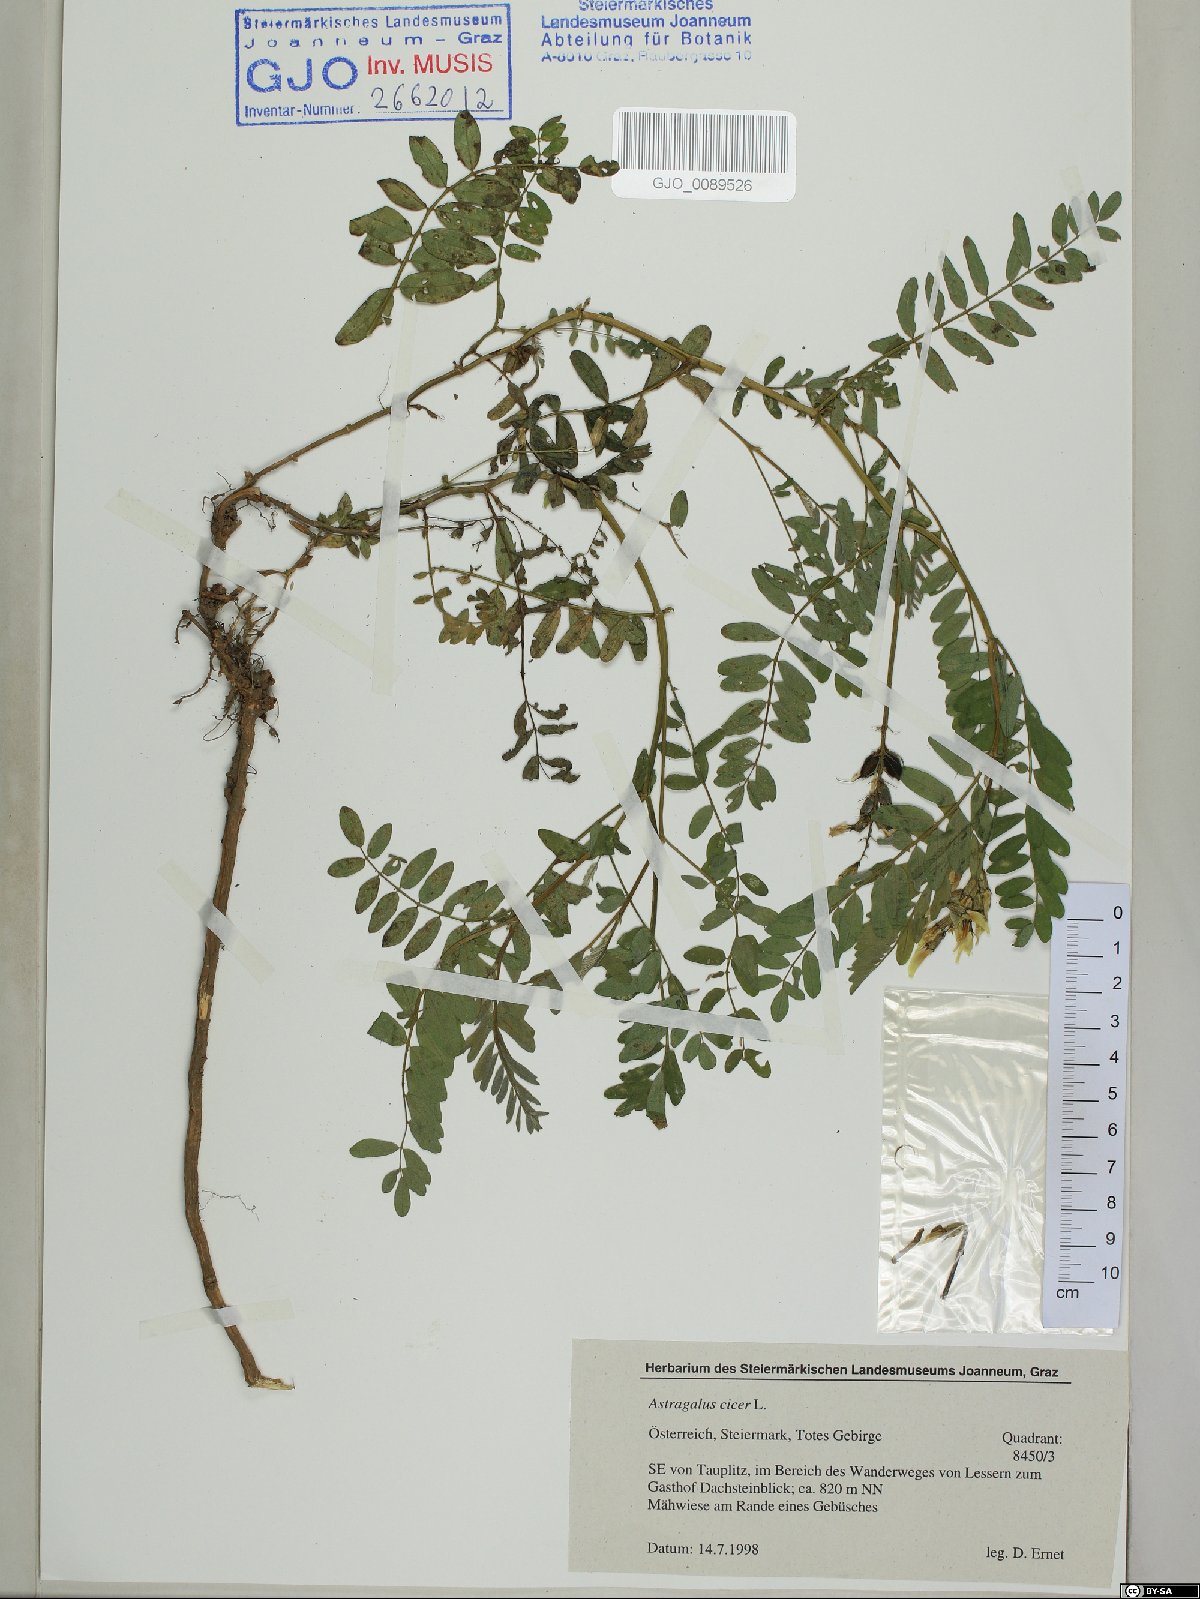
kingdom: Plantae
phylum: Tracheophyta
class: Magnoliopsida
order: Fabales
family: Fabaceae
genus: Astragalus
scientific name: Astragalus cicer
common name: Chick-pea milk-vetch
